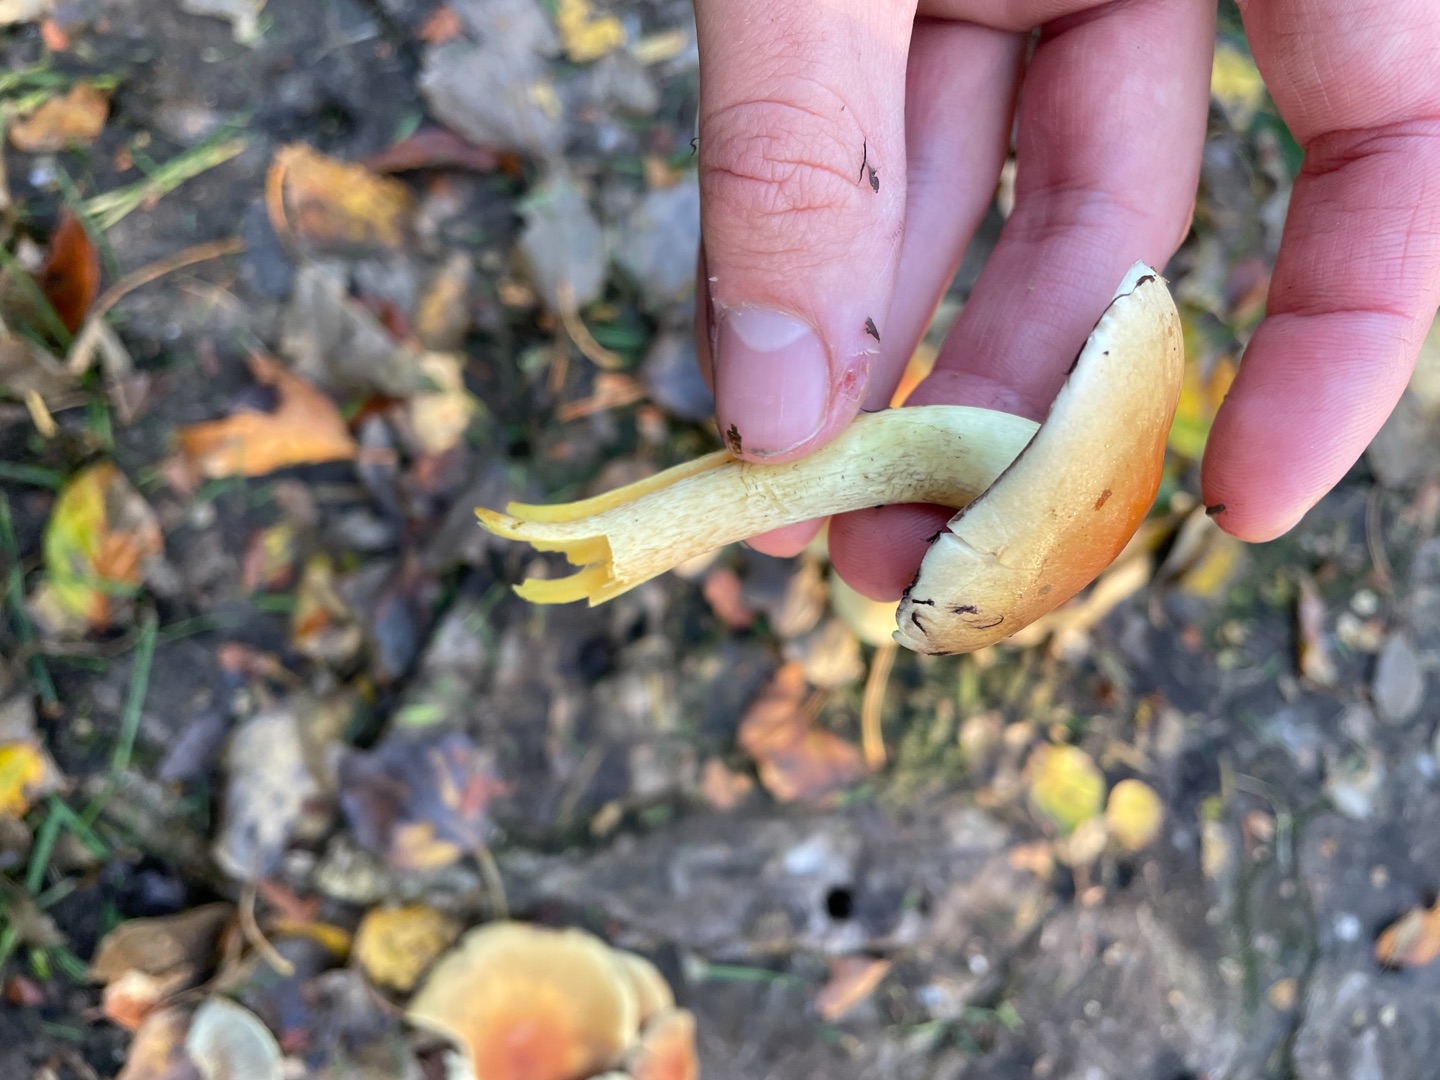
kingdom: Fungi
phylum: Basidiomycota
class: Agaricomycetes
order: Agaricales
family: Strophariaceae
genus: Hypholoma
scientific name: Hypholoma fasciculare
